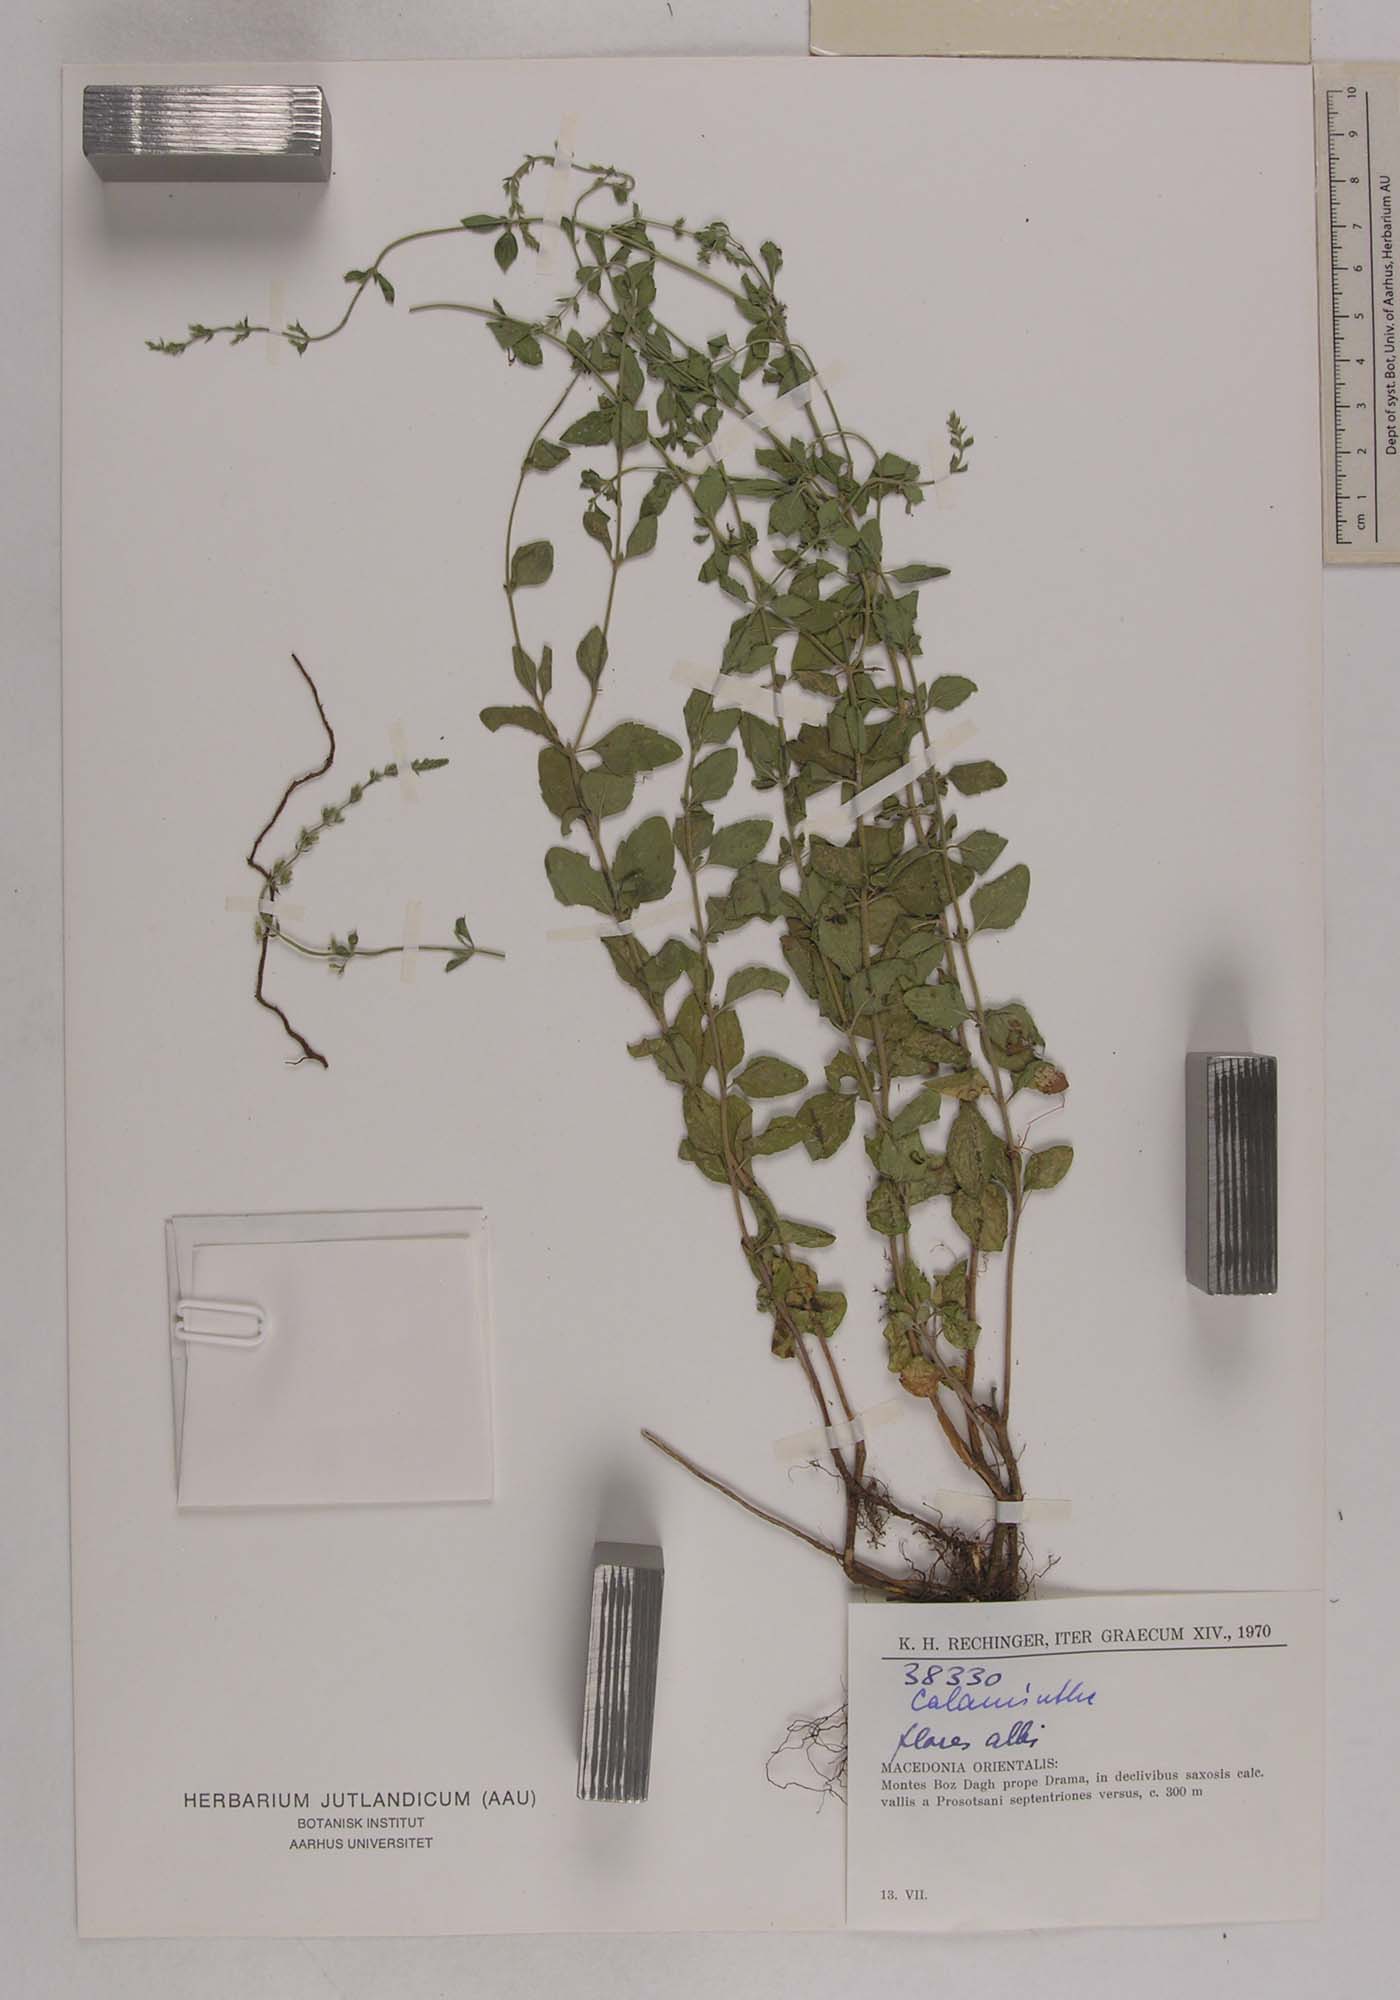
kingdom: Plantae
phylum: Tracheophyta
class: Magnoliopsida
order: Lamiales
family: Lamiaceae
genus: Calamintha
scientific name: Calamintha
